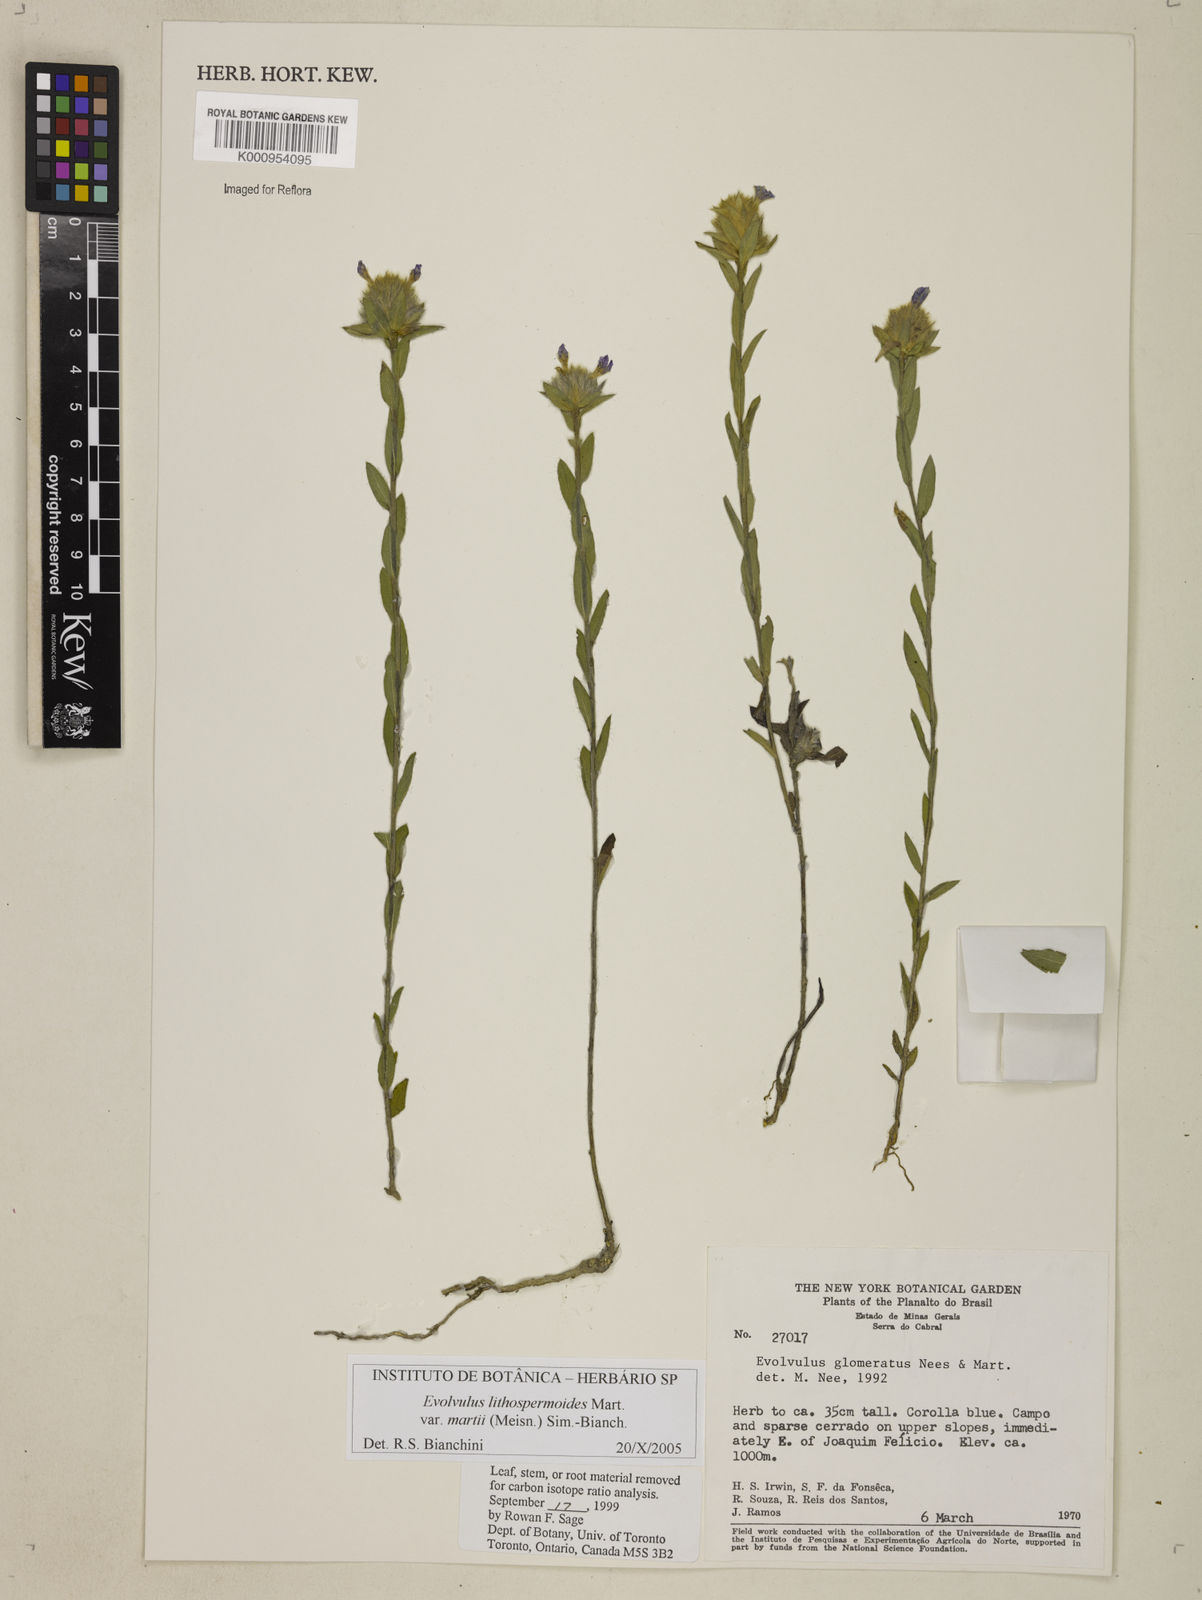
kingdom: Plantae
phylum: Tracheophyta
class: Magnoliopsida
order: Solanales
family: Convolvulaceae
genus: Evolvulus
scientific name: Evolvulus lithospermoides
